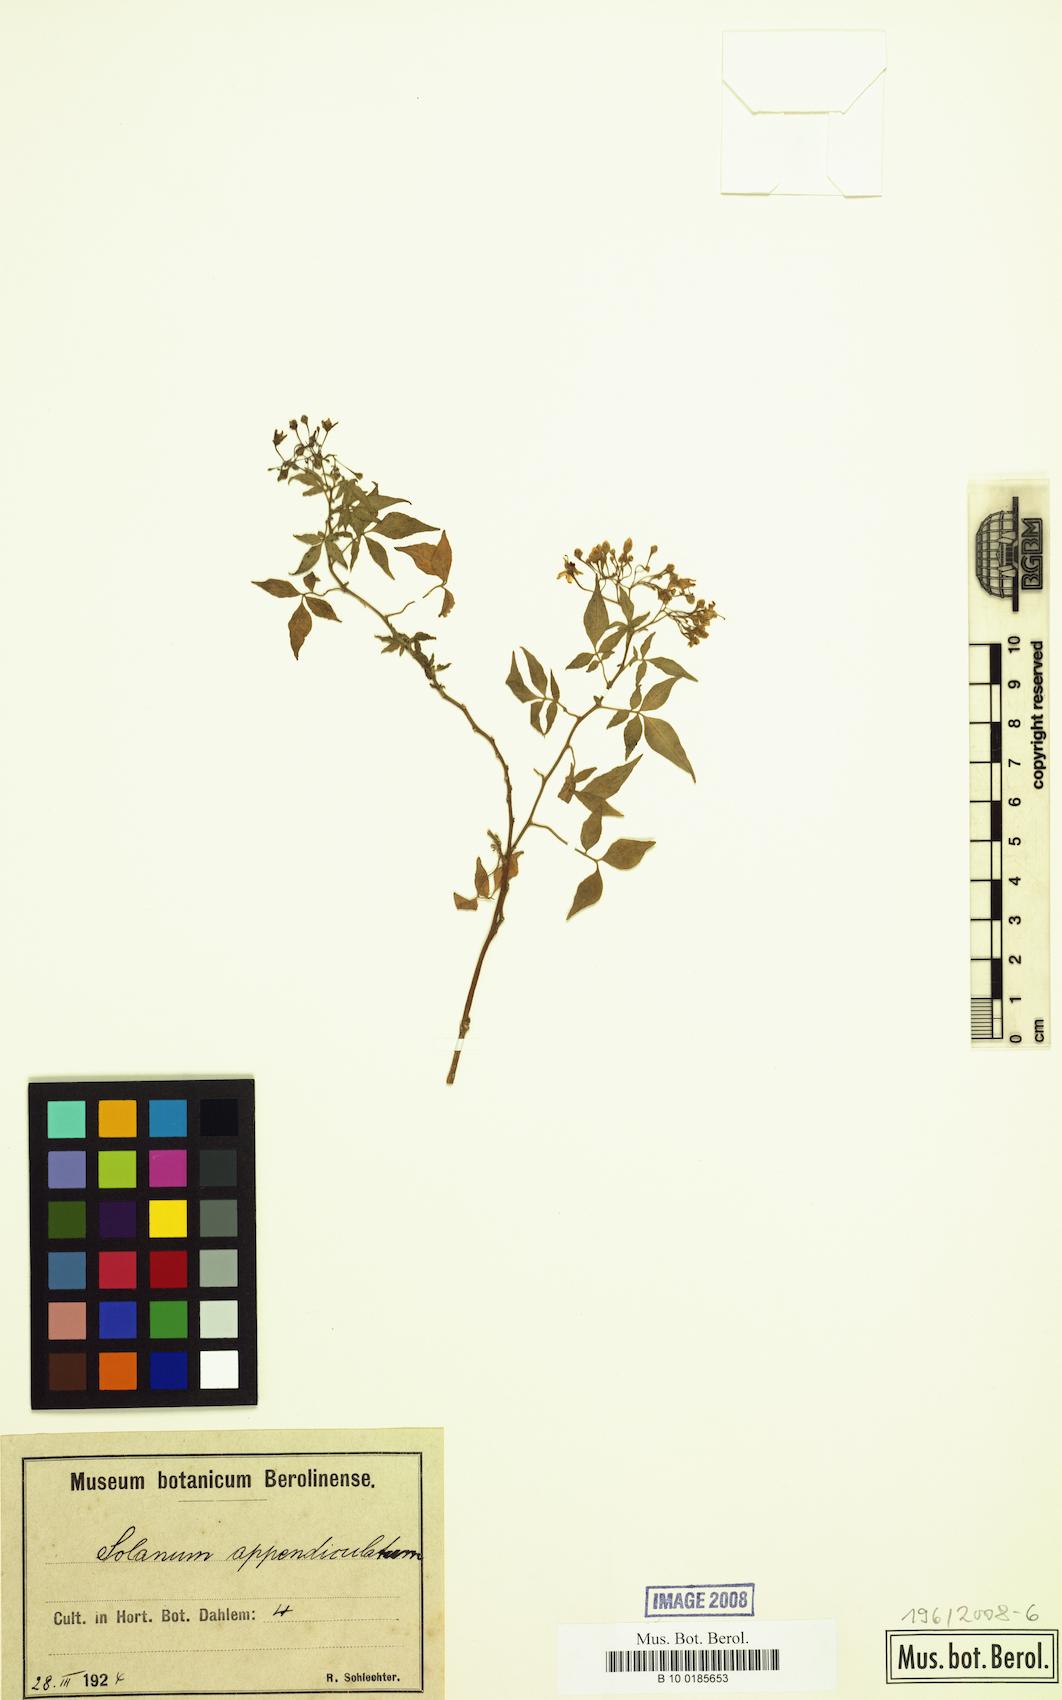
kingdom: Plantae
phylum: Tracheophyta
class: Magnoliopsida
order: Solanales
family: Solanaceae
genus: Solanum
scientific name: Solanum appendiculatum
